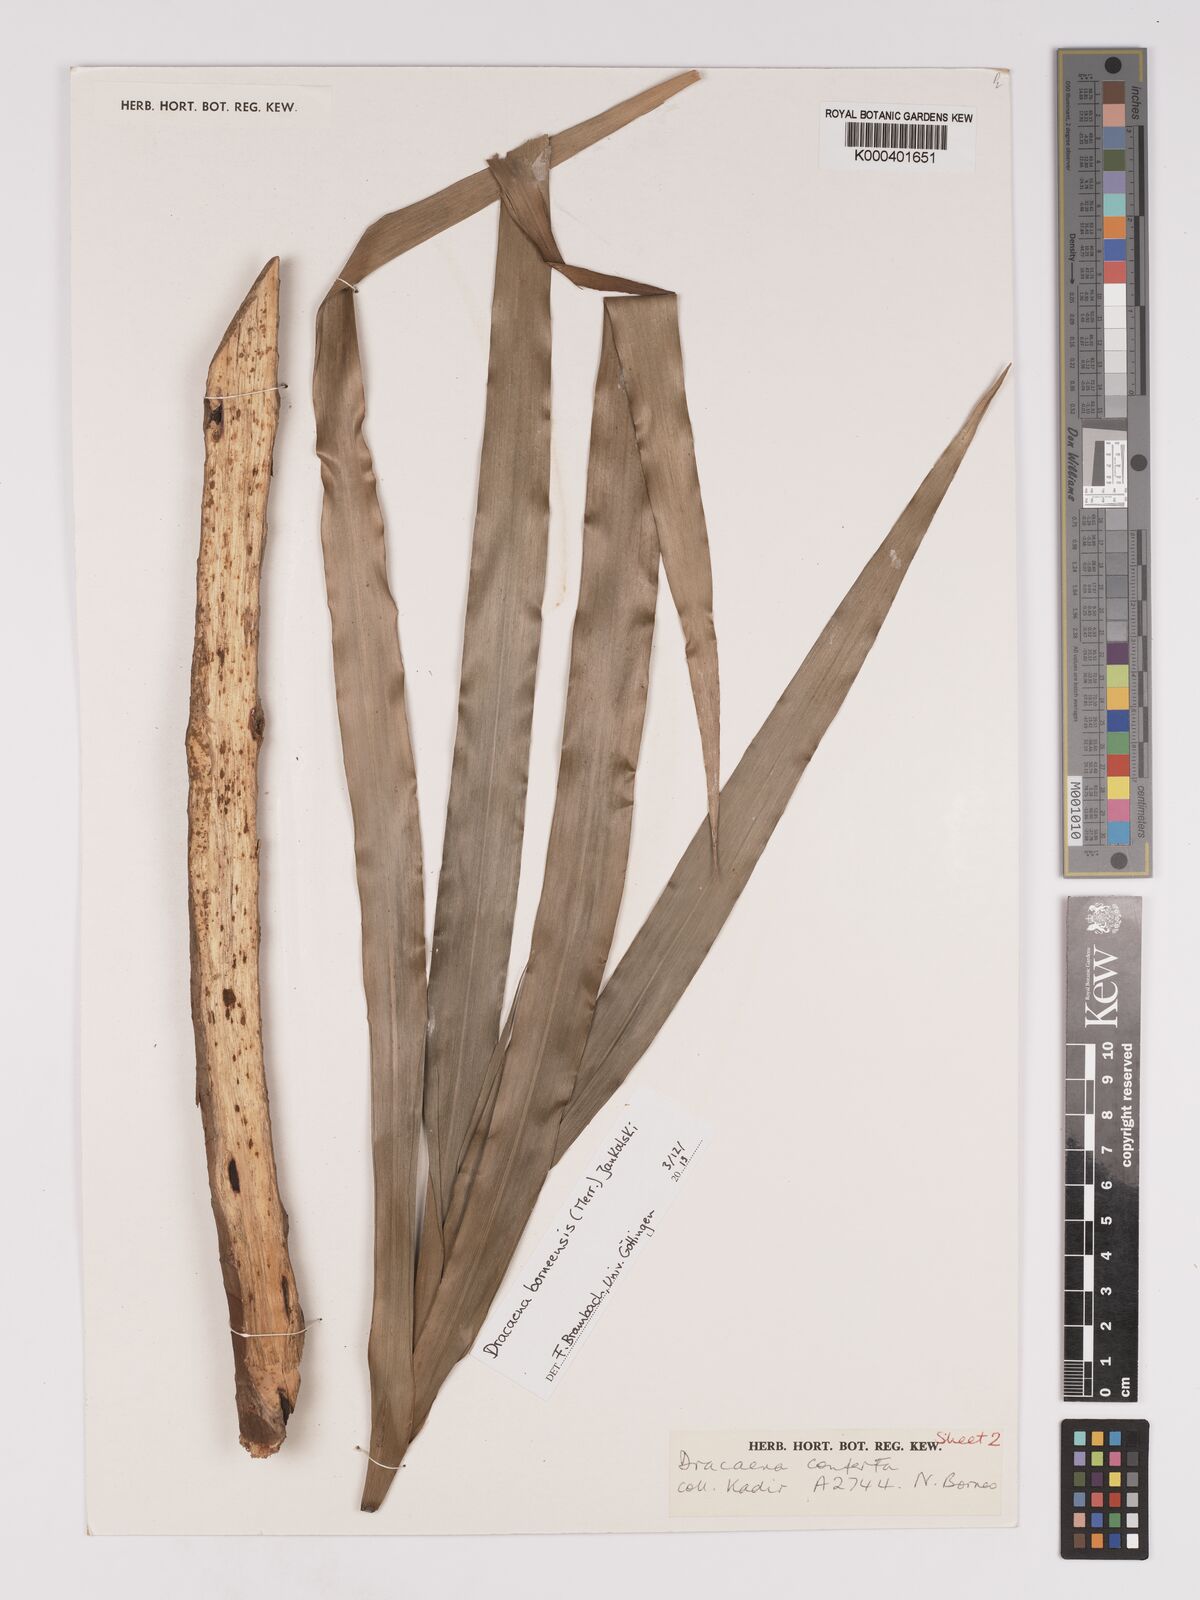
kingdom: Plantae
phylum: Tracheophyta
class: Liliopsida
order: Asparagales
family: Asparagaceae
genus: Dracaena
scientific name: Dracaena conferta
